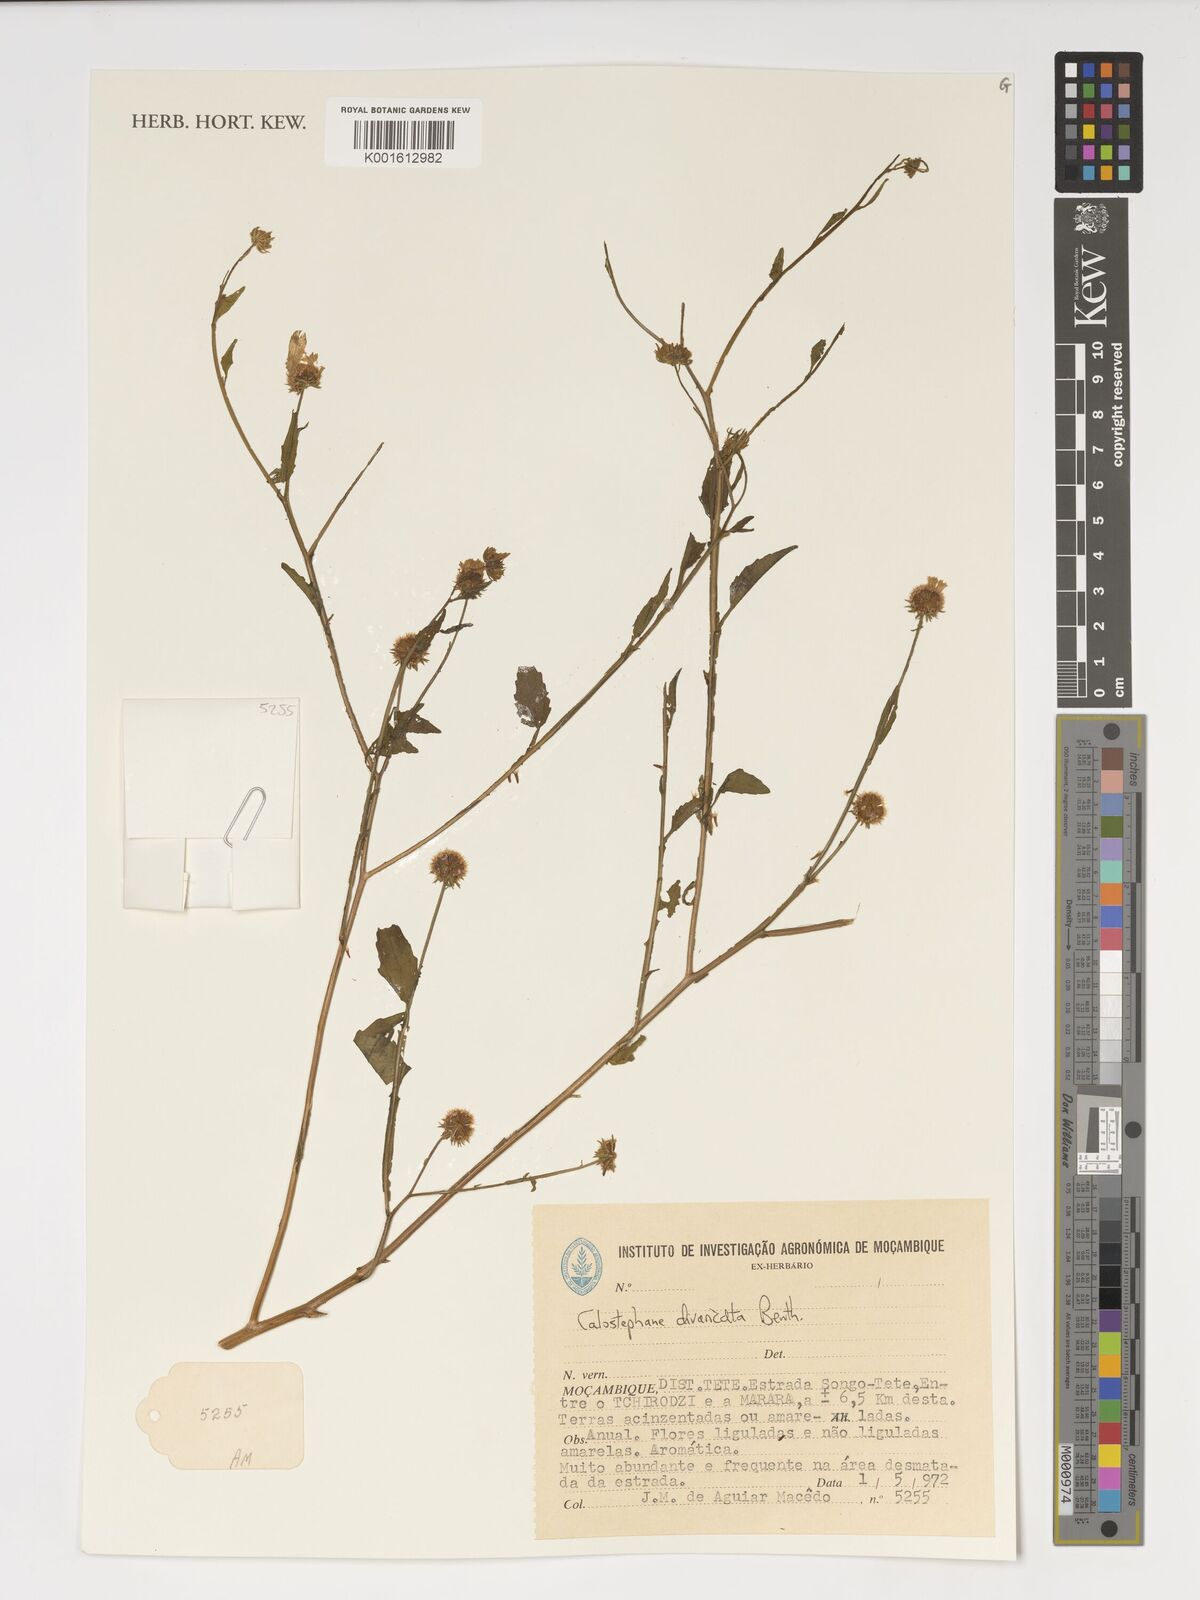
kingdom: Plantae
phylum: Tracheophyta
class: Magnoliopsida
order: Asterales
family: Asteraceae
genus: Calostephane
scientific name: Calostephane divaricata
